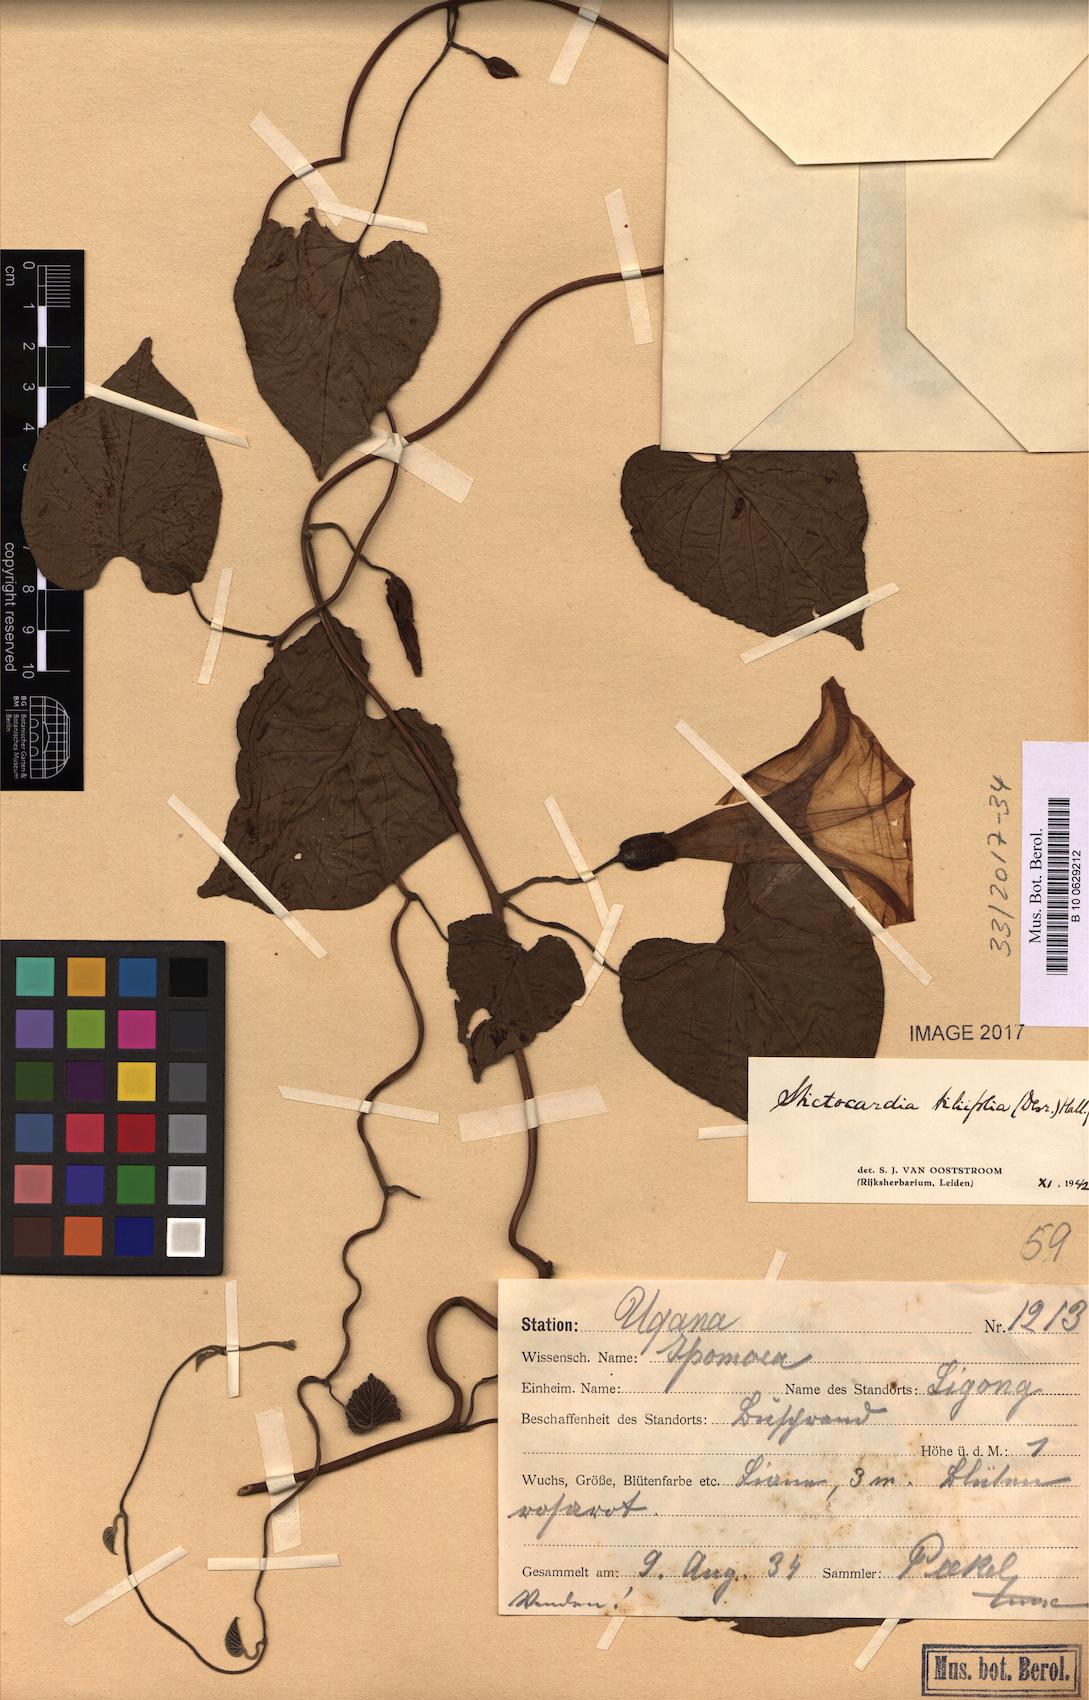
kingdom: Plantae
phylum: Tracheophyta
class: Magnoliopsida
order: Solanales
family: Convolvulaceae
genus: Stictocardia
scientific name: Stictocardia tiliifolia
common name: Spottedheart
